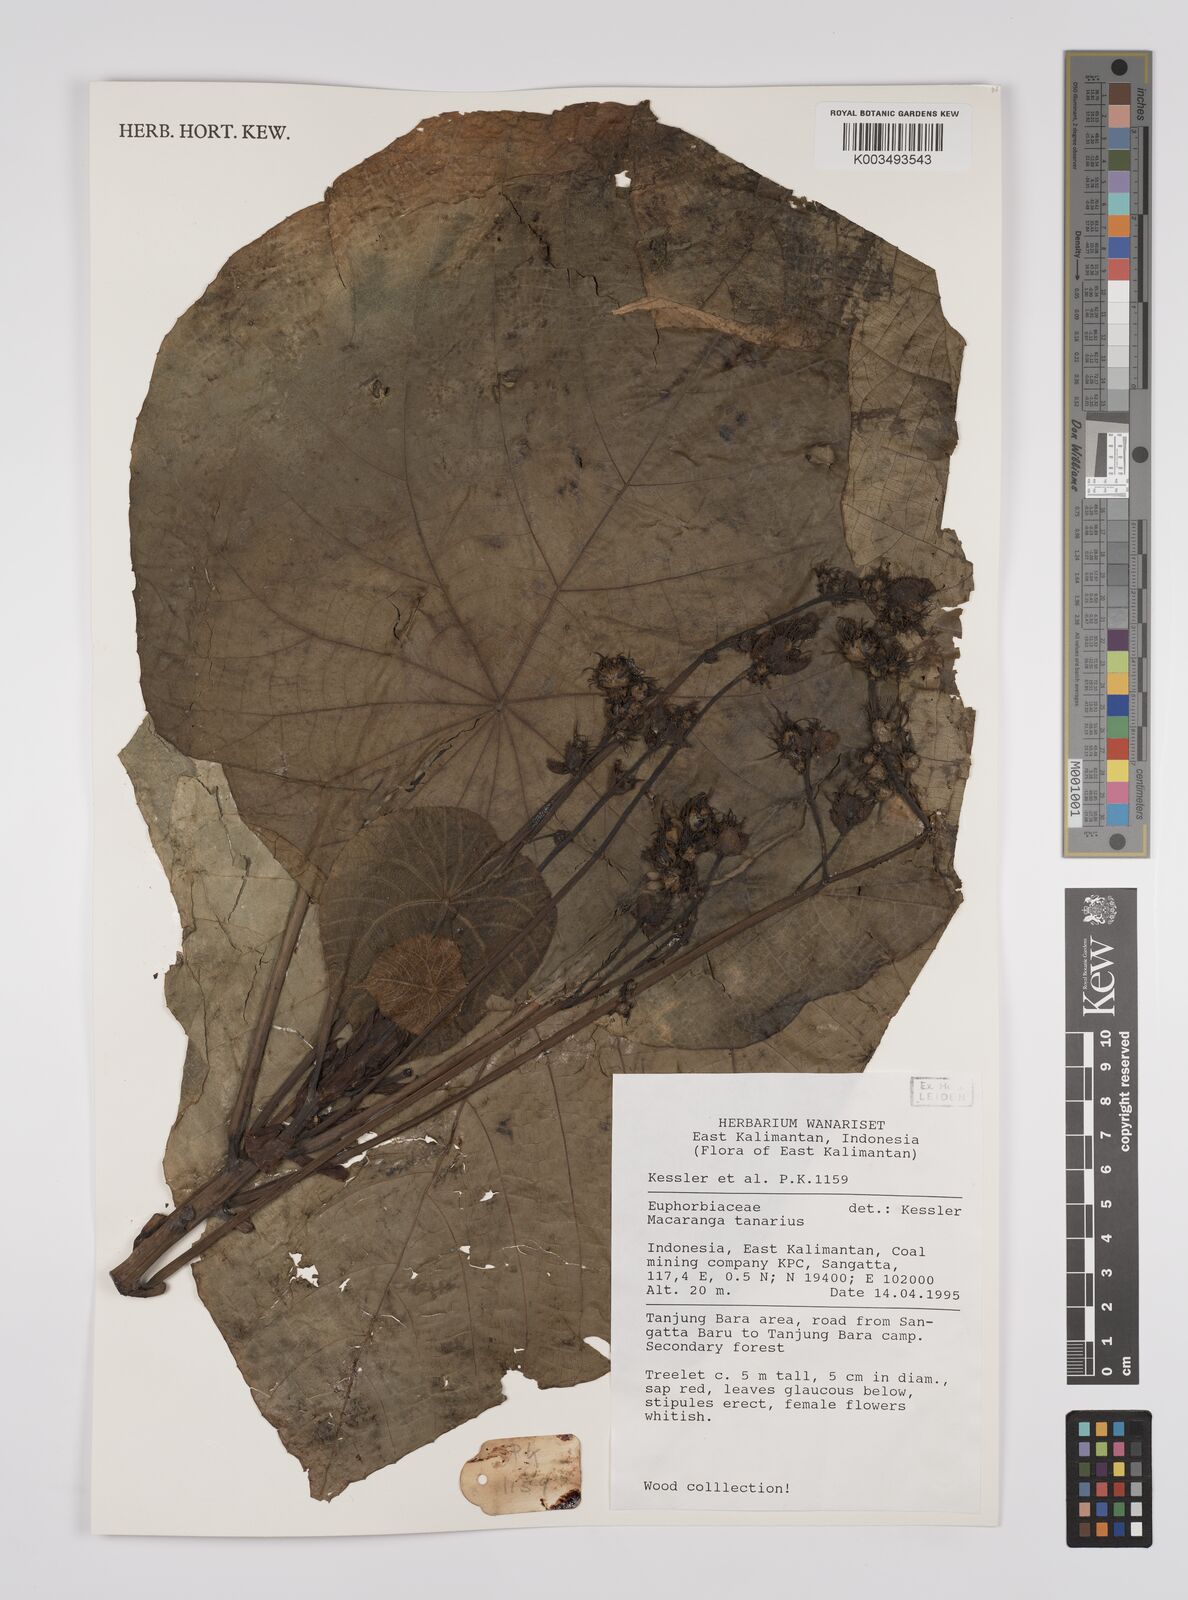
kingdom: Plantae
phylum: Tracheophyta
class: Magnoliopsida
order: Malpighiales
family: Euphorbiaceae
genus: Macaranga
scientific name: Macaranga tanarius
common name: Parasol leaf tree
